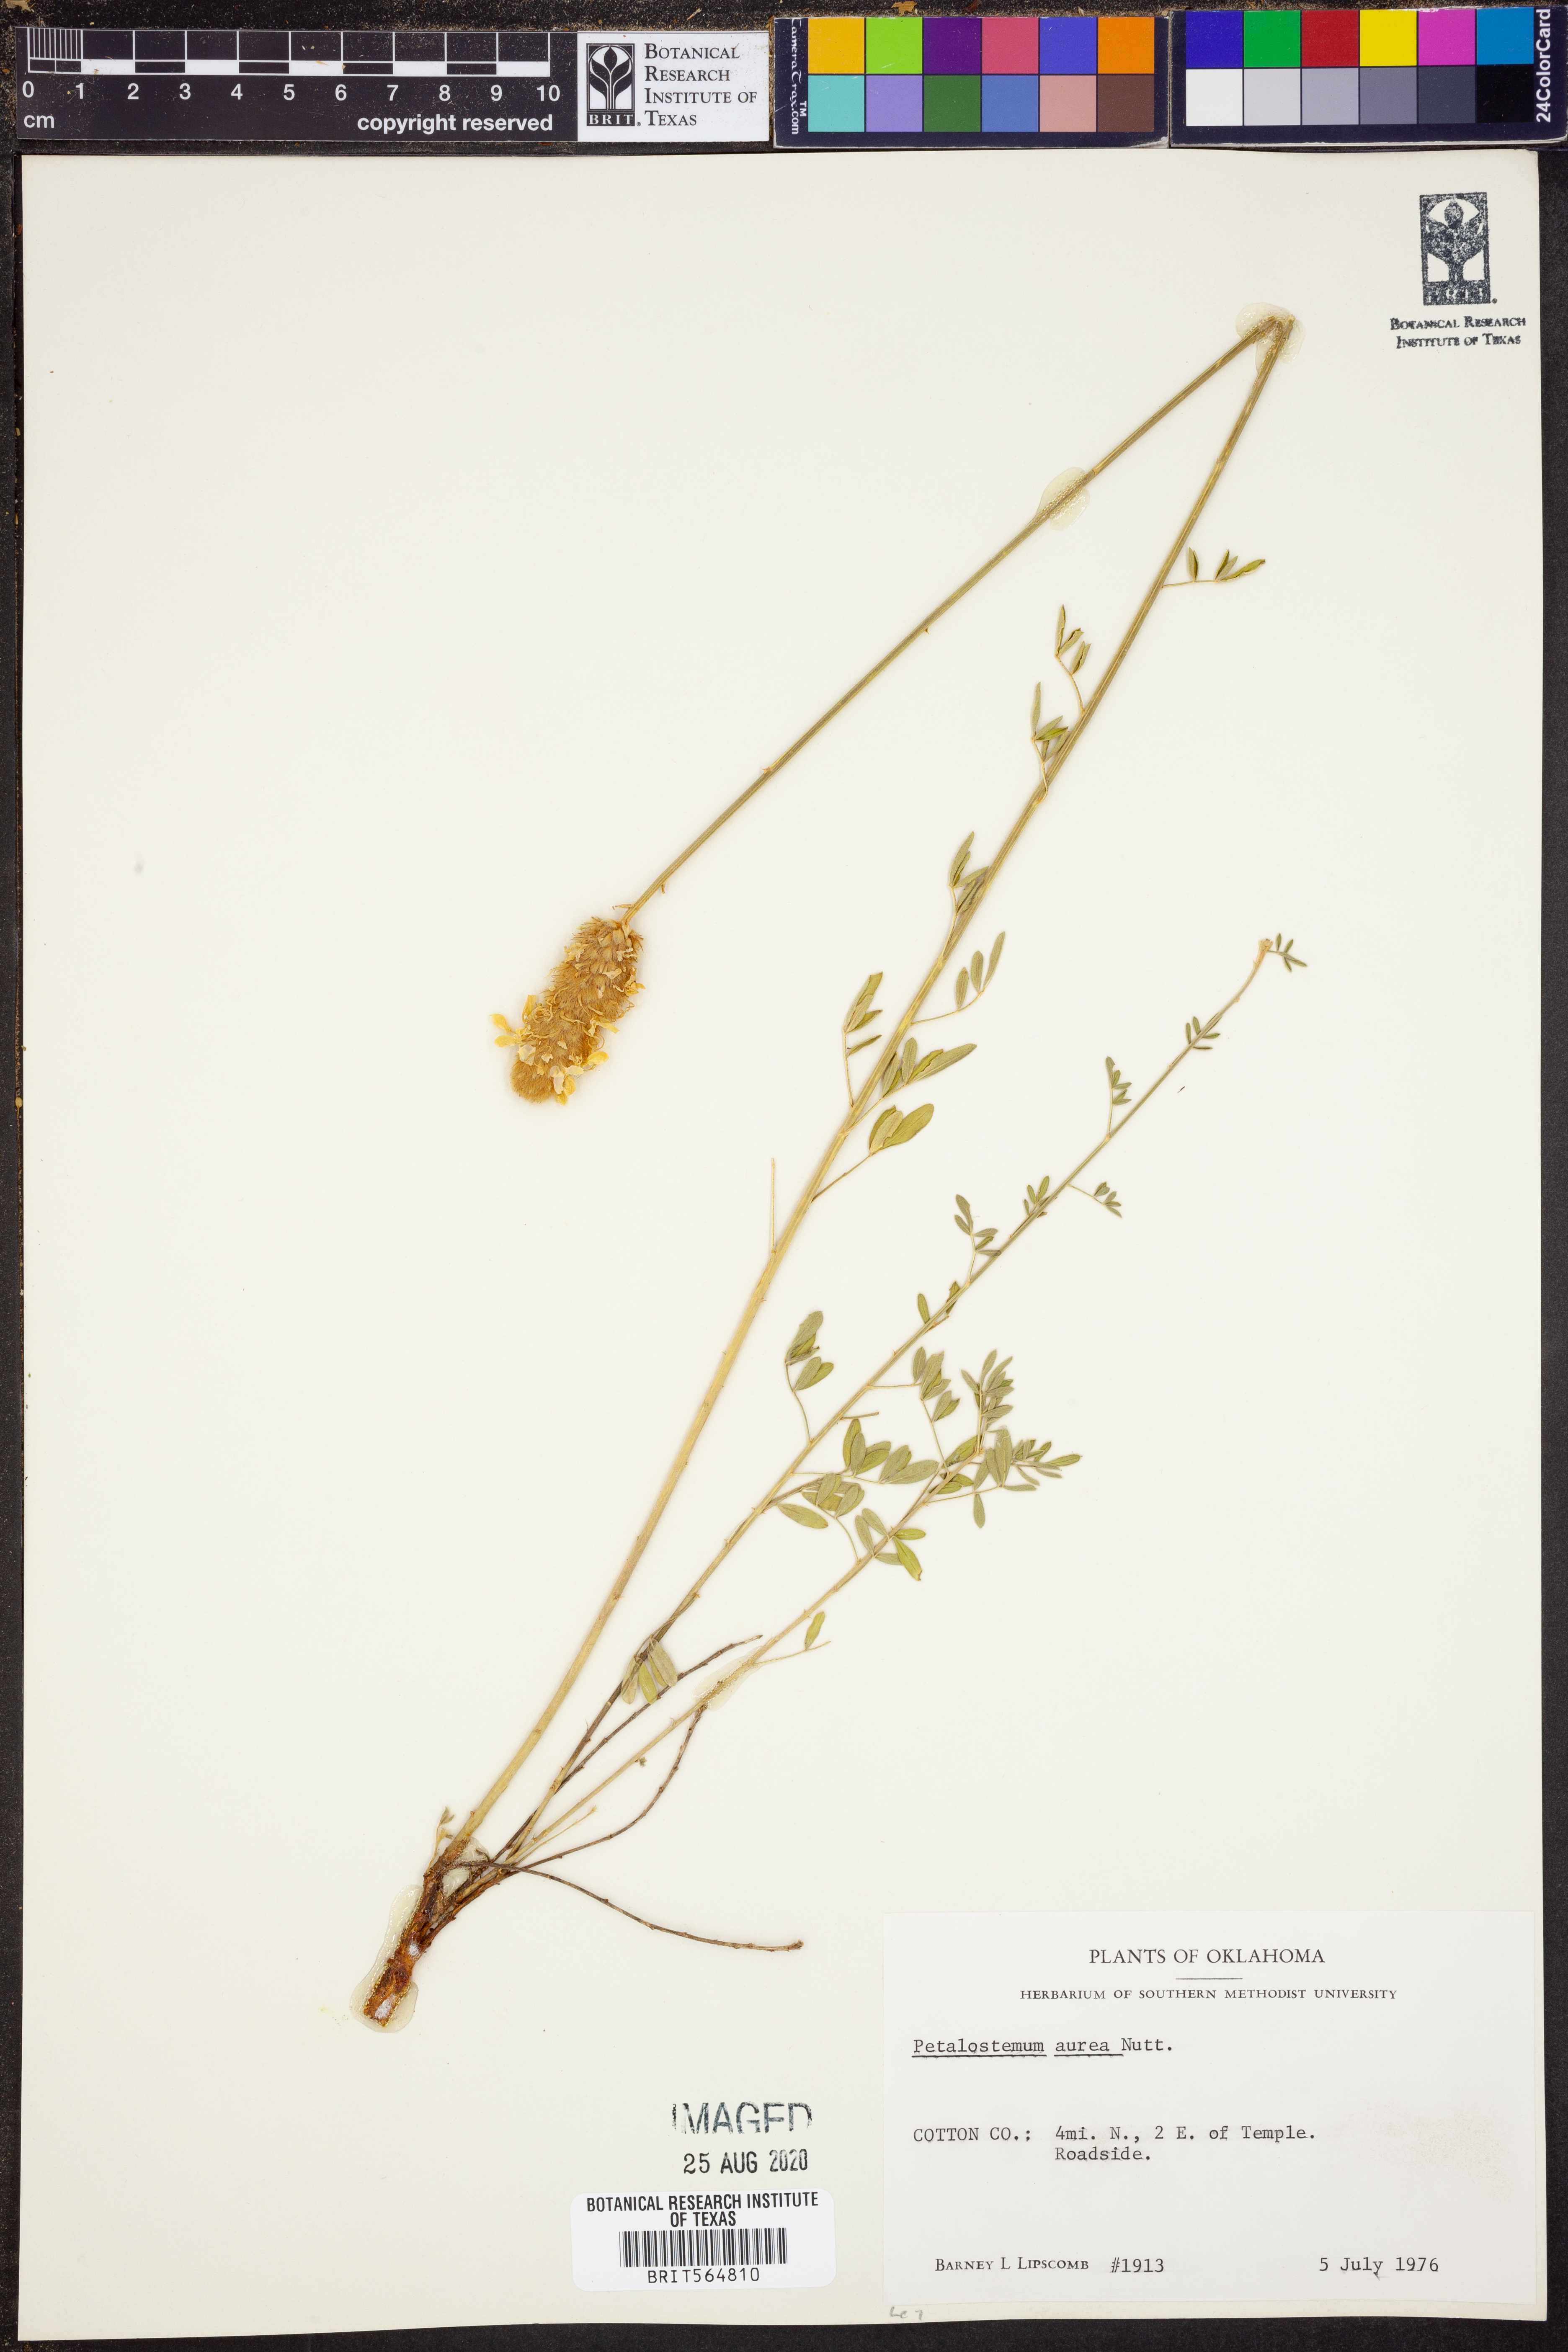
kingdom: Plantae
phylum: Tracheophyta
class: Magnoliopsida
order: Fabales
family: Fabaceae
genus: Dalea
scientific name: Dalea aurea
